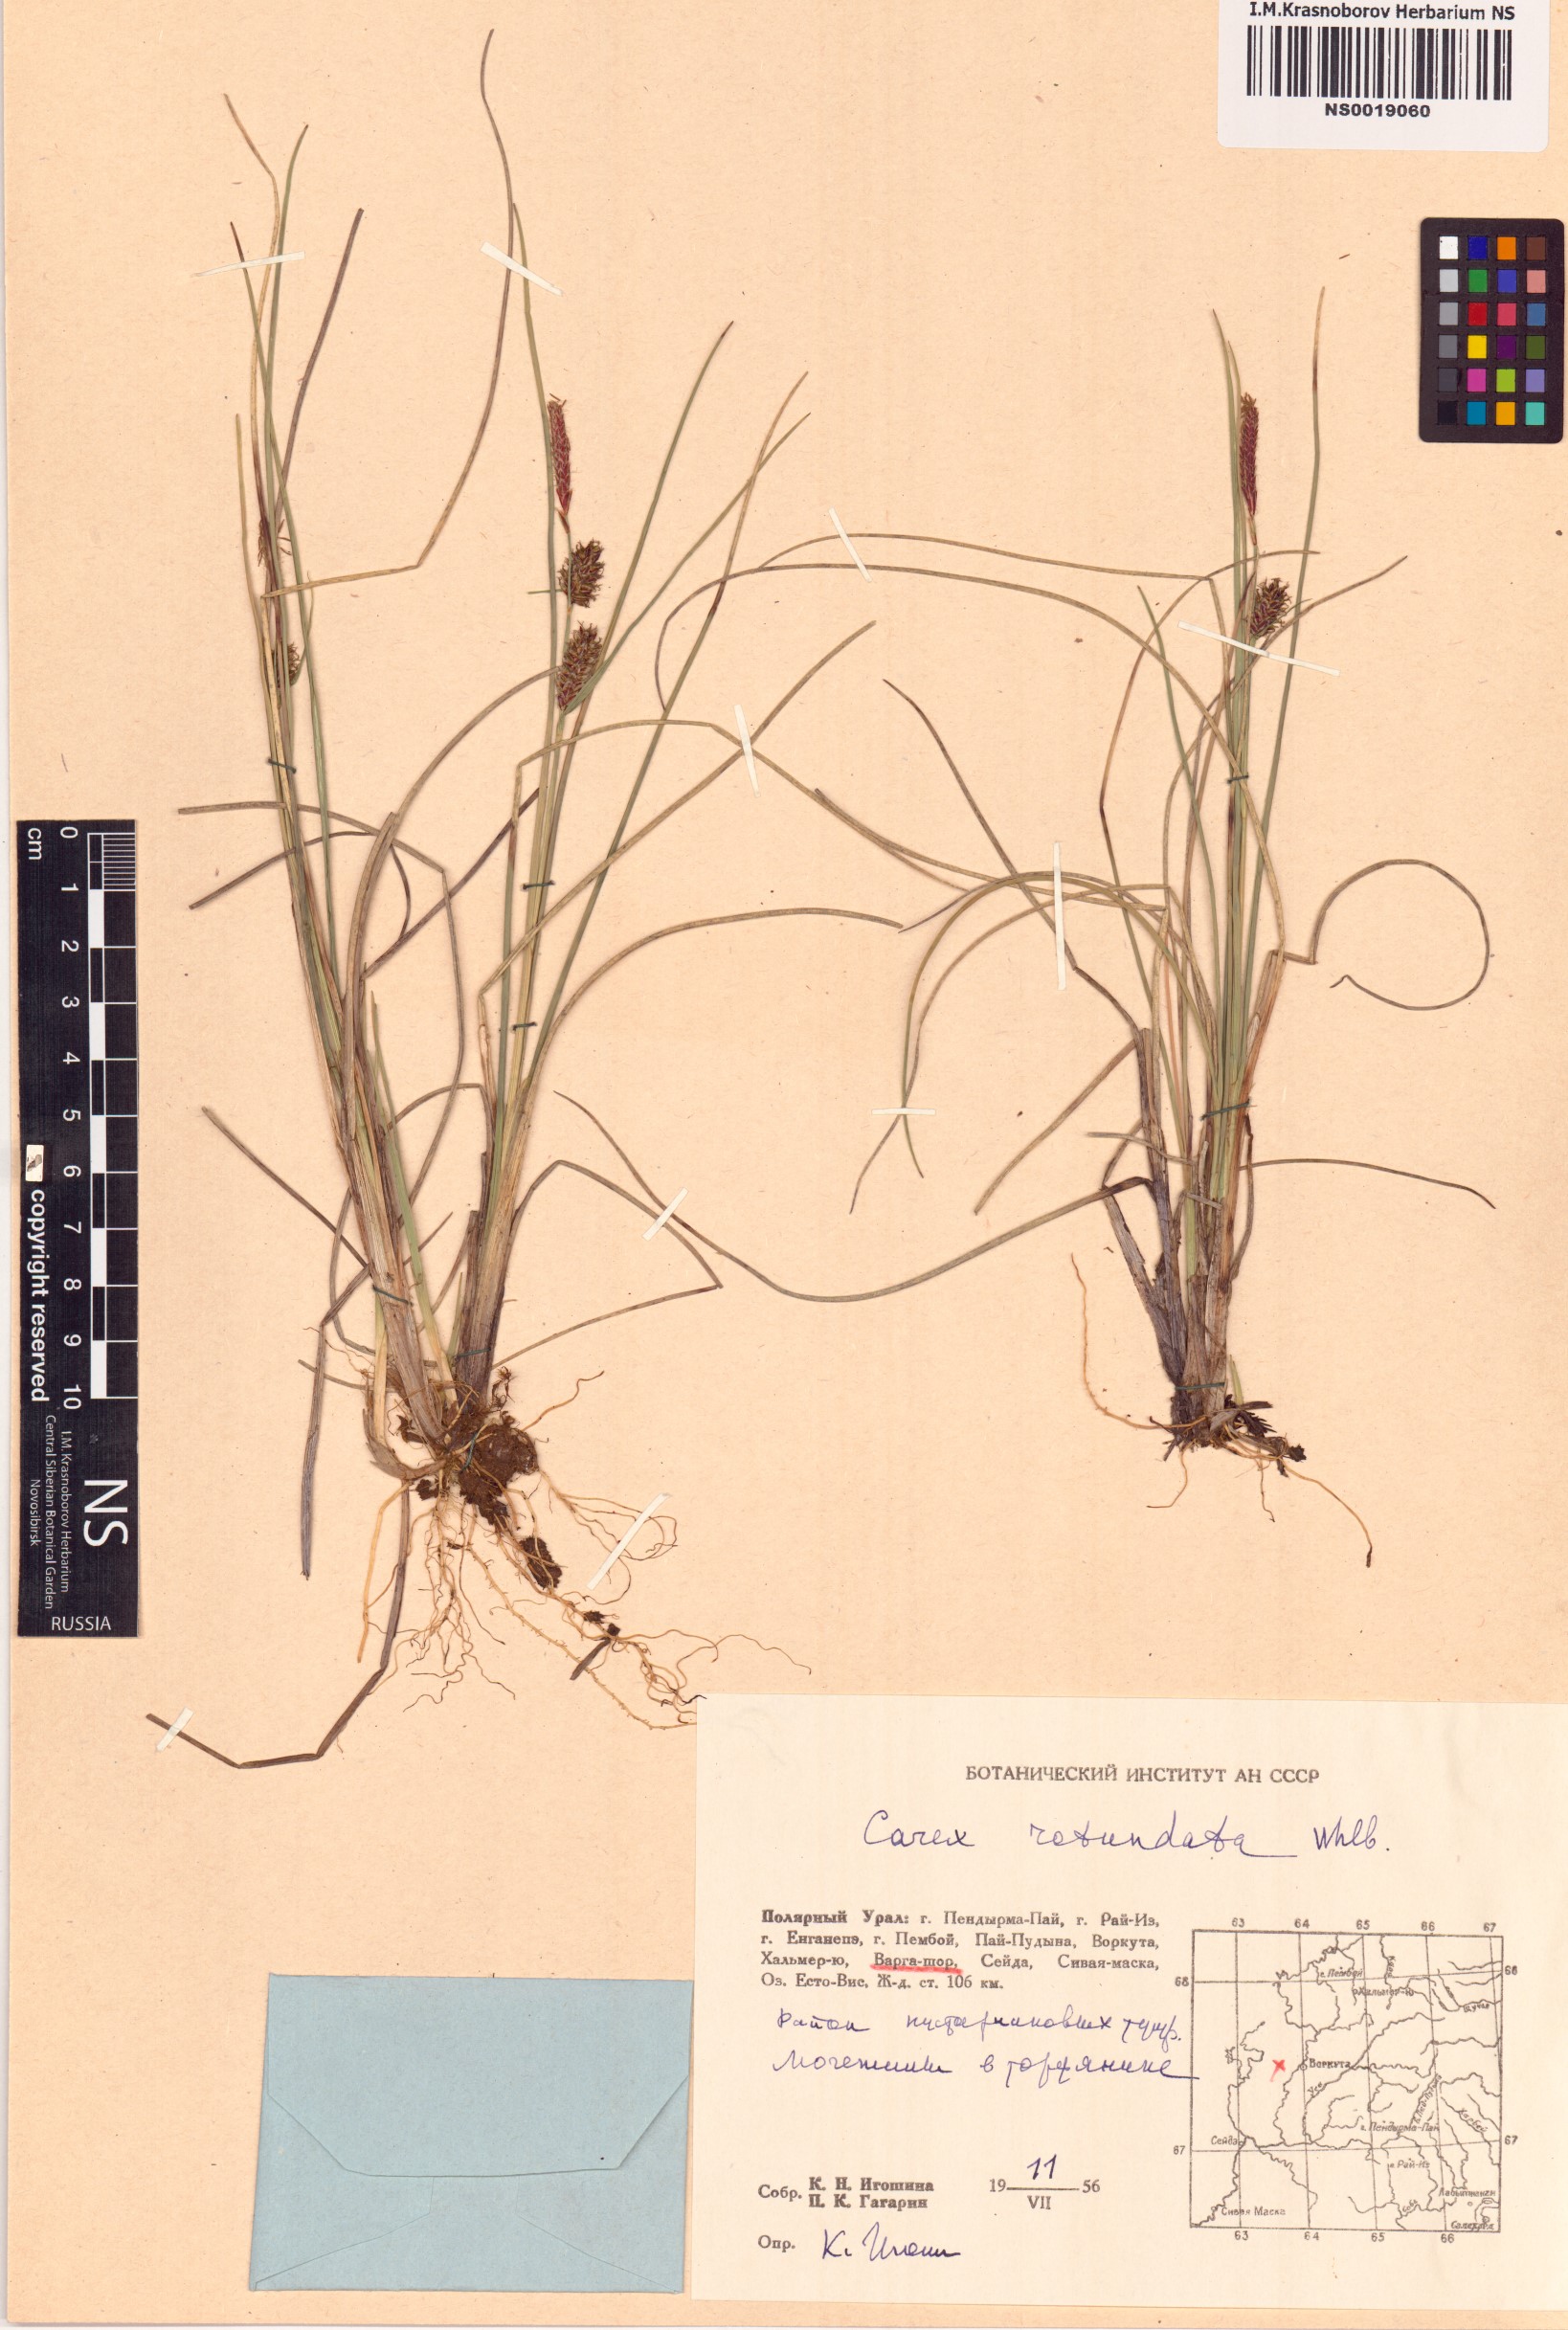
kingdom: Plantae
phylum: Tracheophyta
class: Liliopsida
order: Poales
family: Cyperaceae
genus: Carex
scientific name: Carex rotundata
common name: Round-fruited sedge
